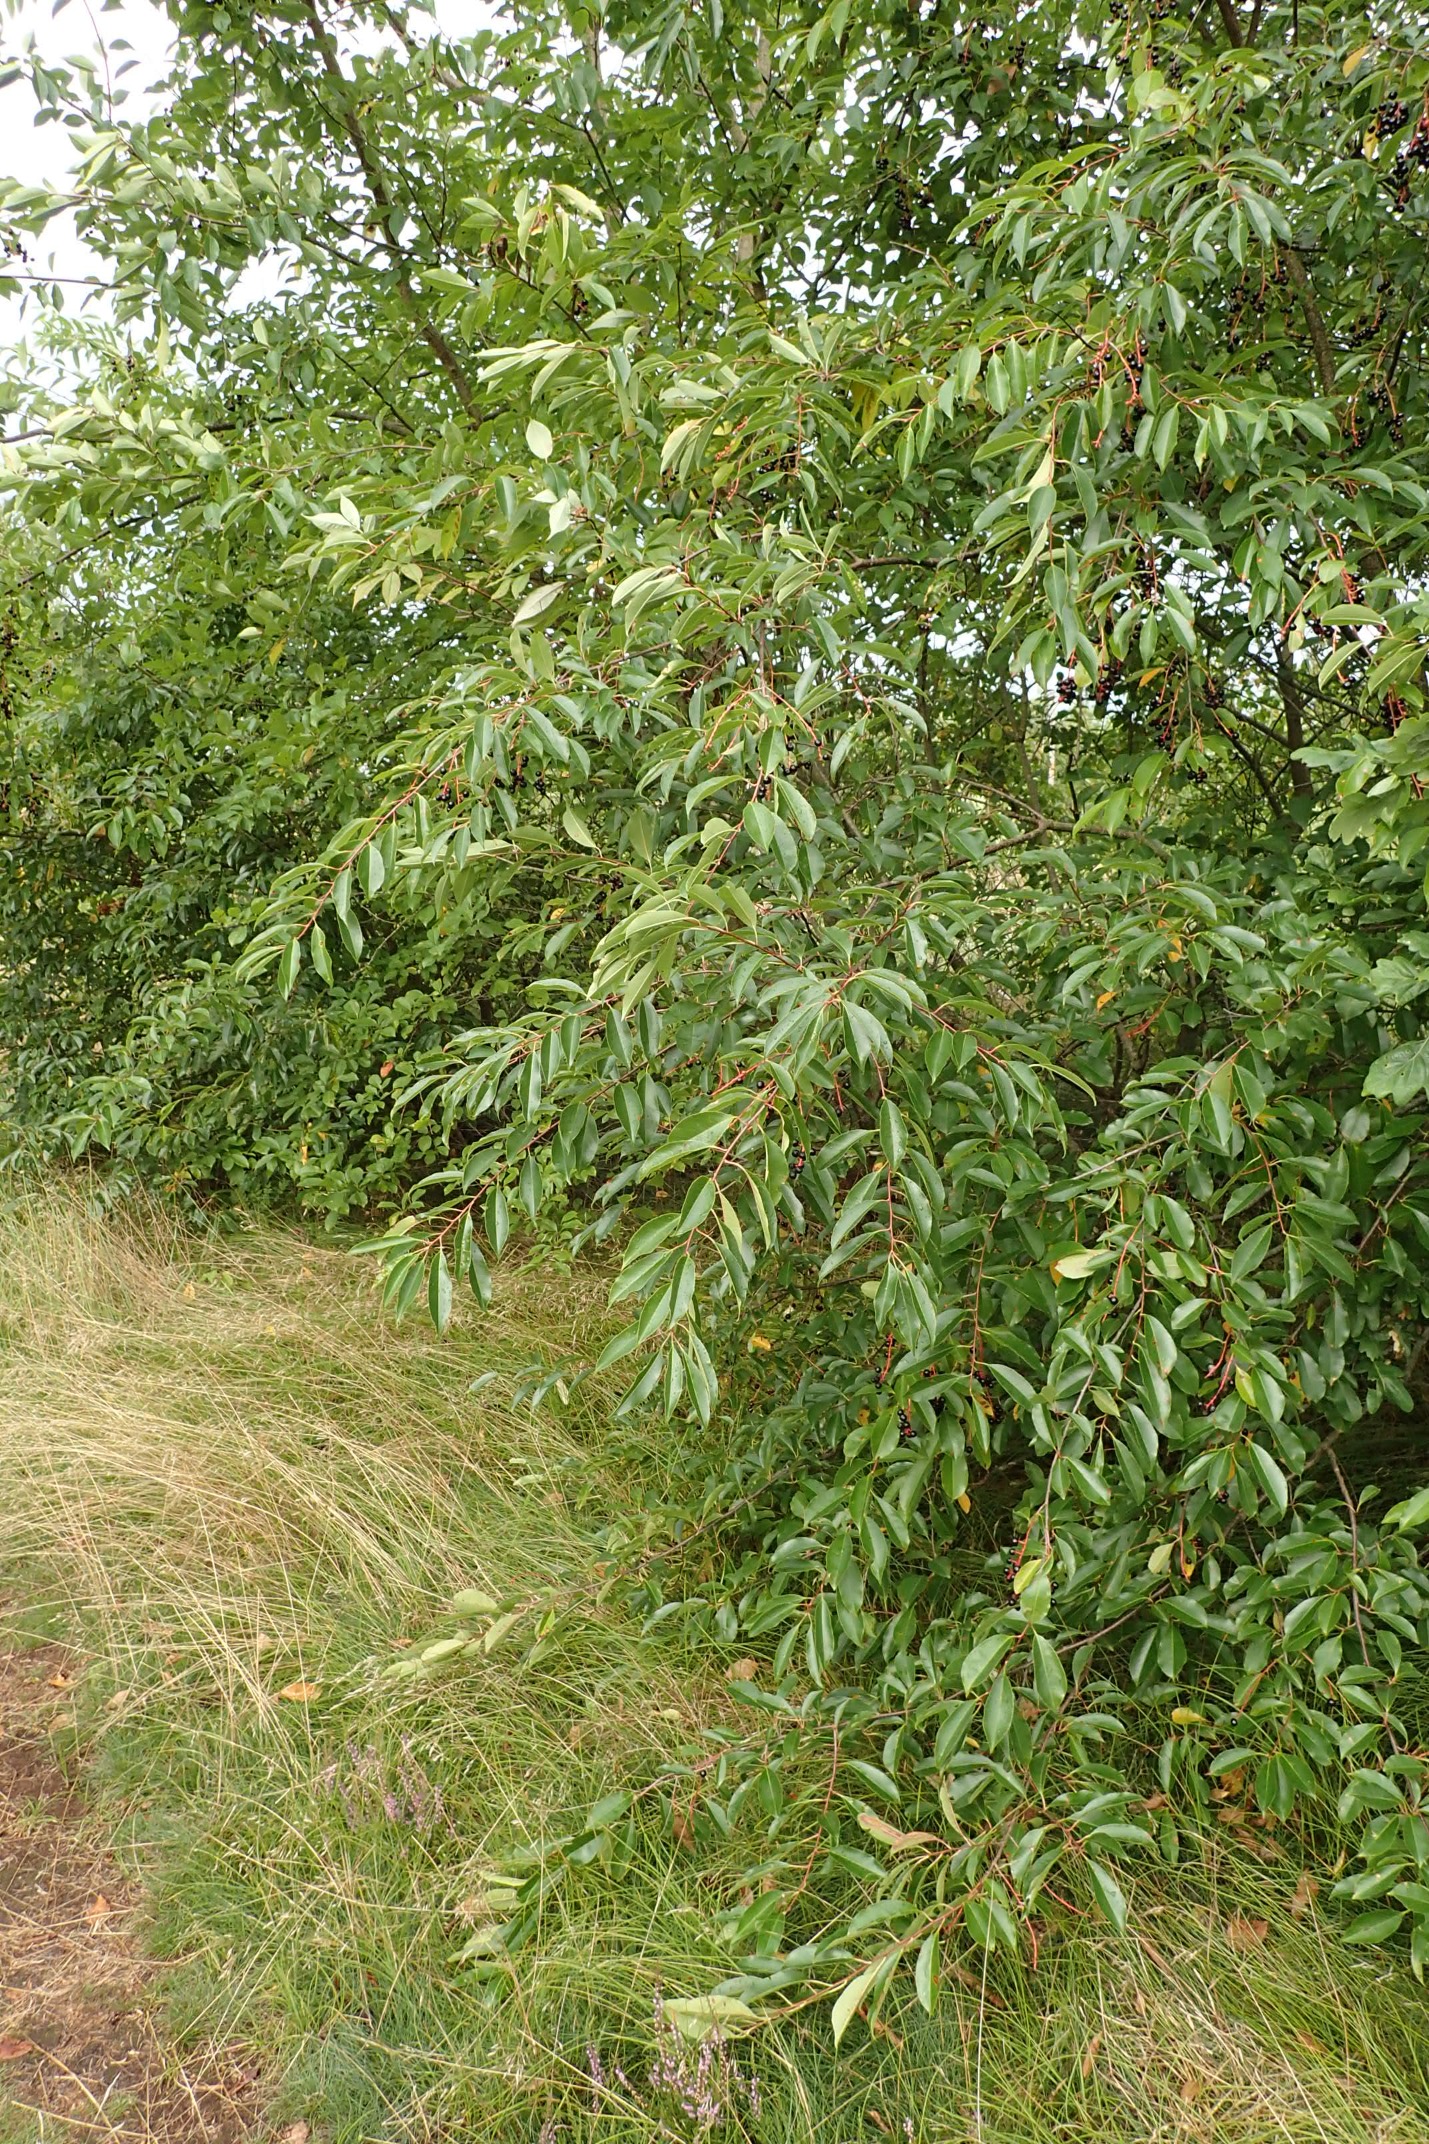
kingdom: Plantae
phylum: Tracheophyta
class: Magnoliopsida
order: Rosales
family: Rosaceae
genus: Prunus
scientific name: Prunus serotina
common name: Glansbladet hæg
